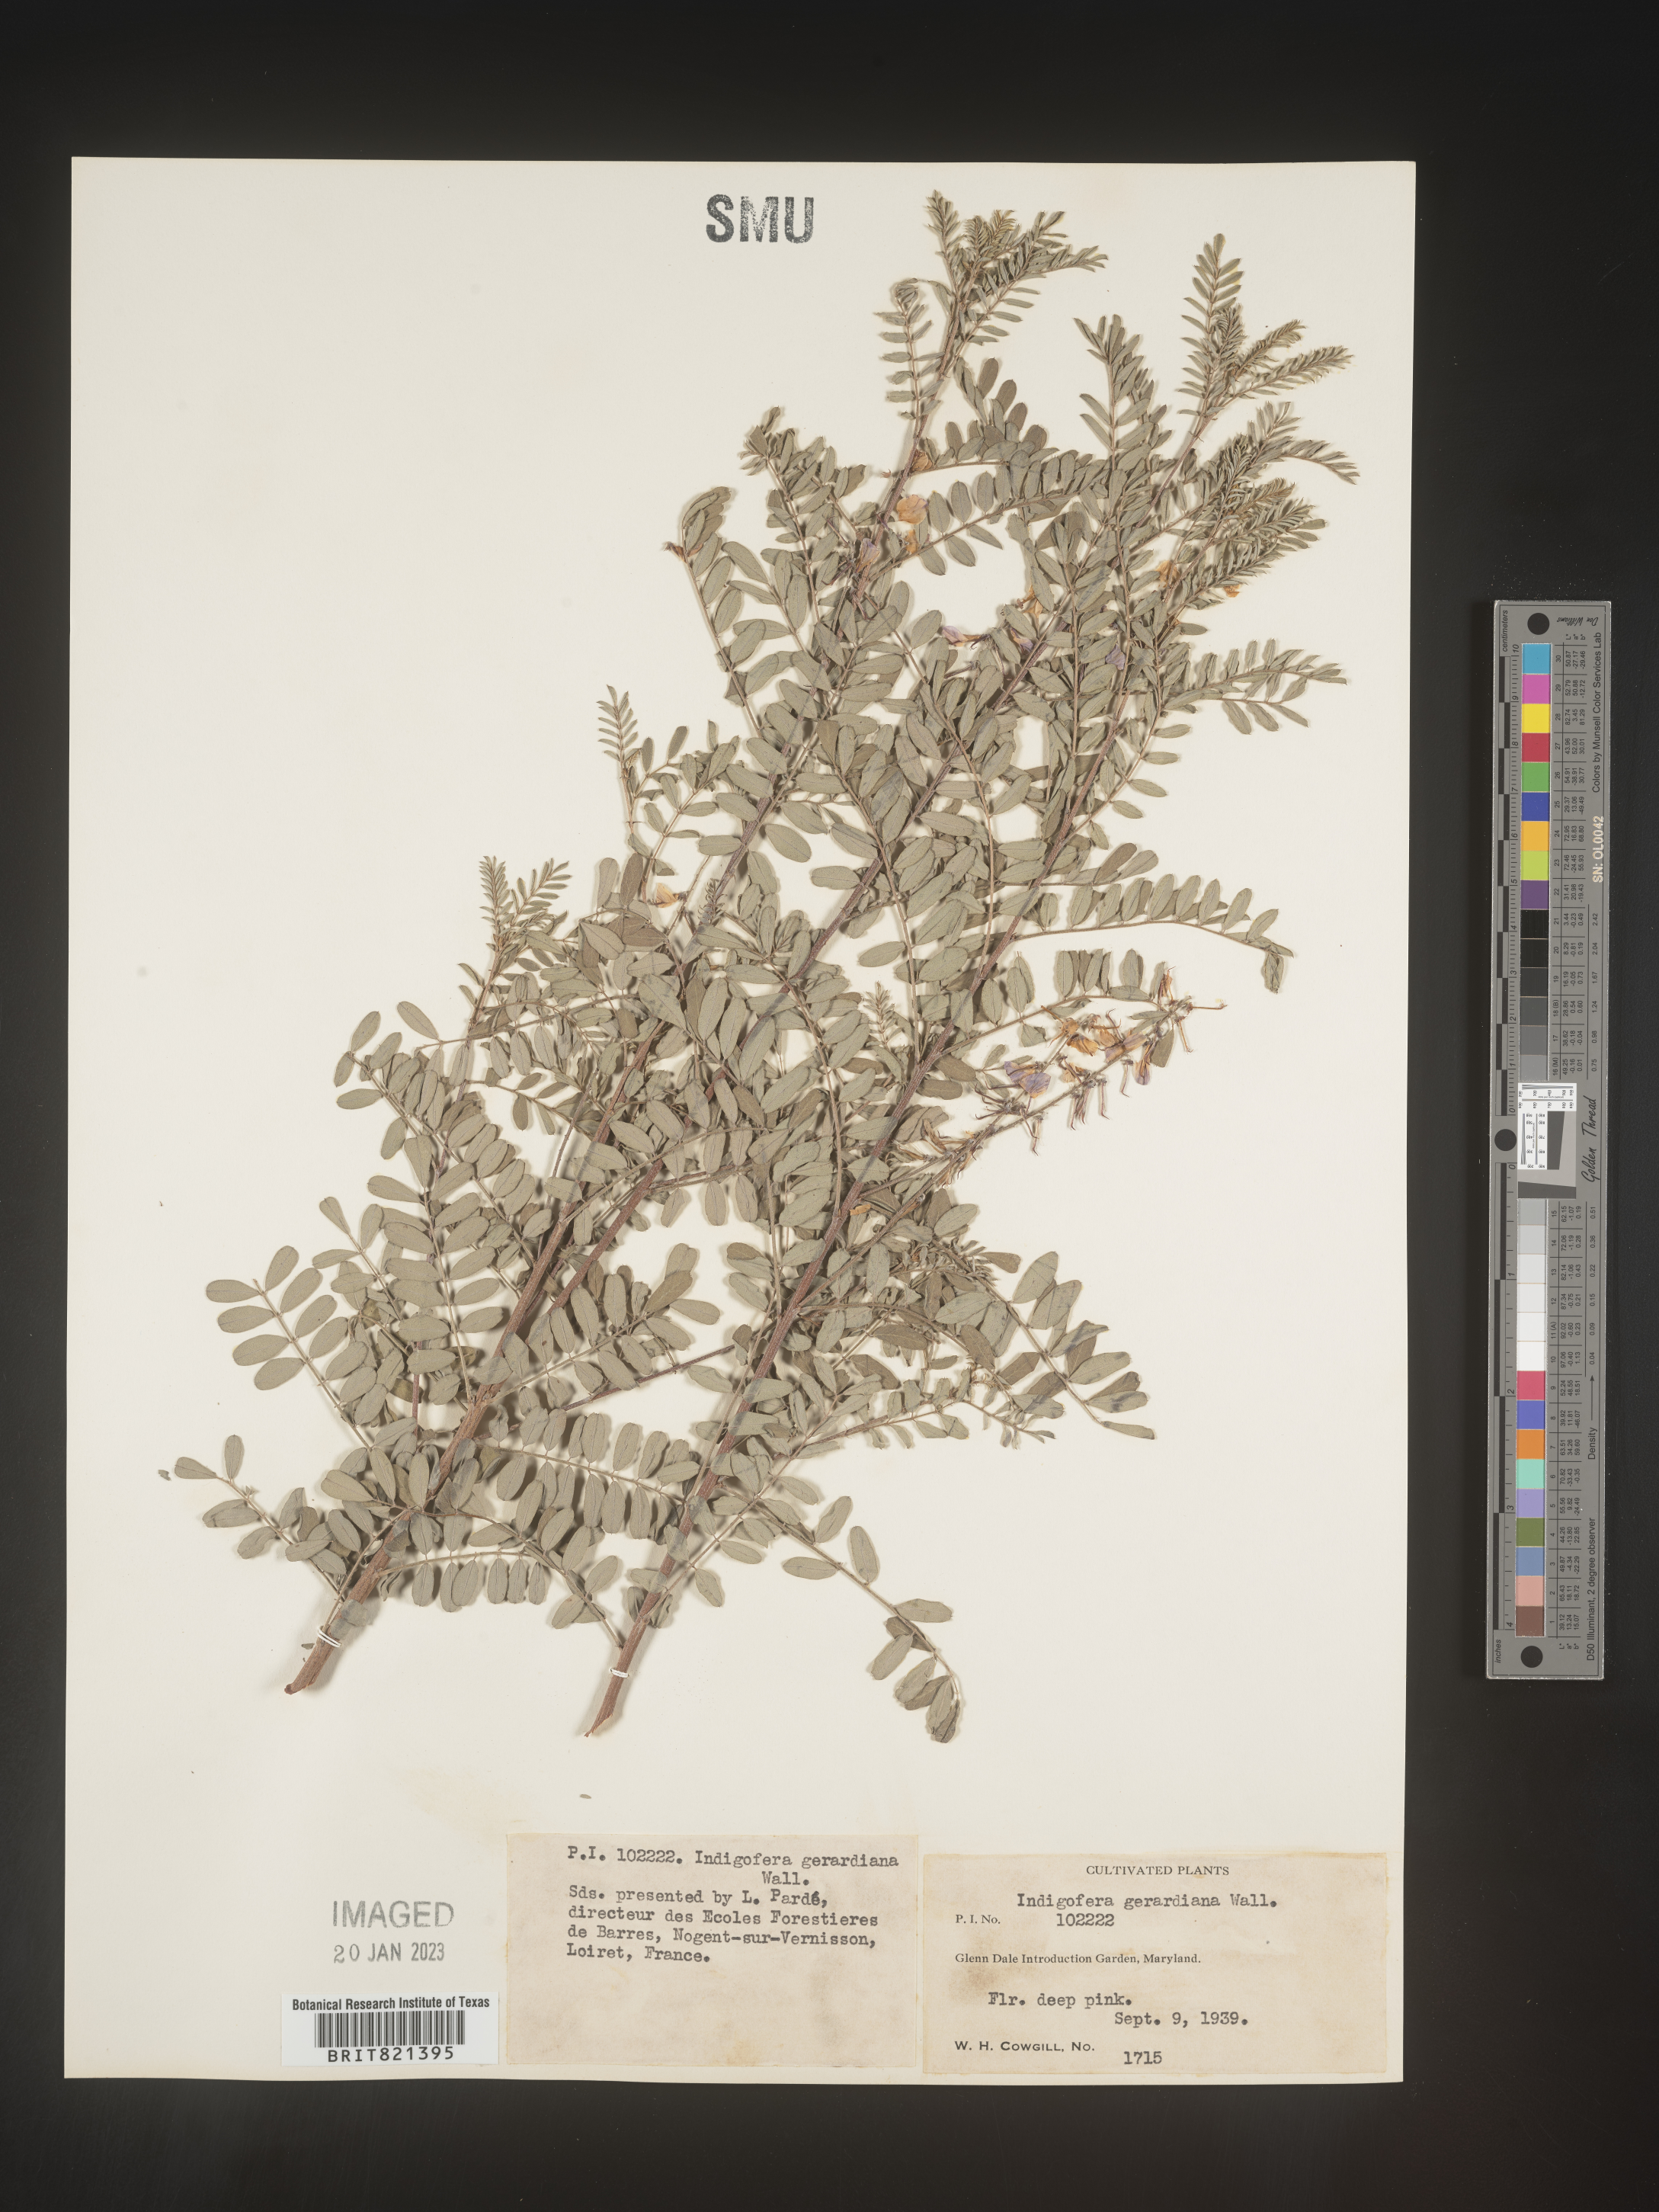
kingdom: Plantae
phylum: Tracheophyta
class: Magnoliopsida
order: Fabales
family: Fabaceae
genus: Indigofera
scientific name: Indigofera
